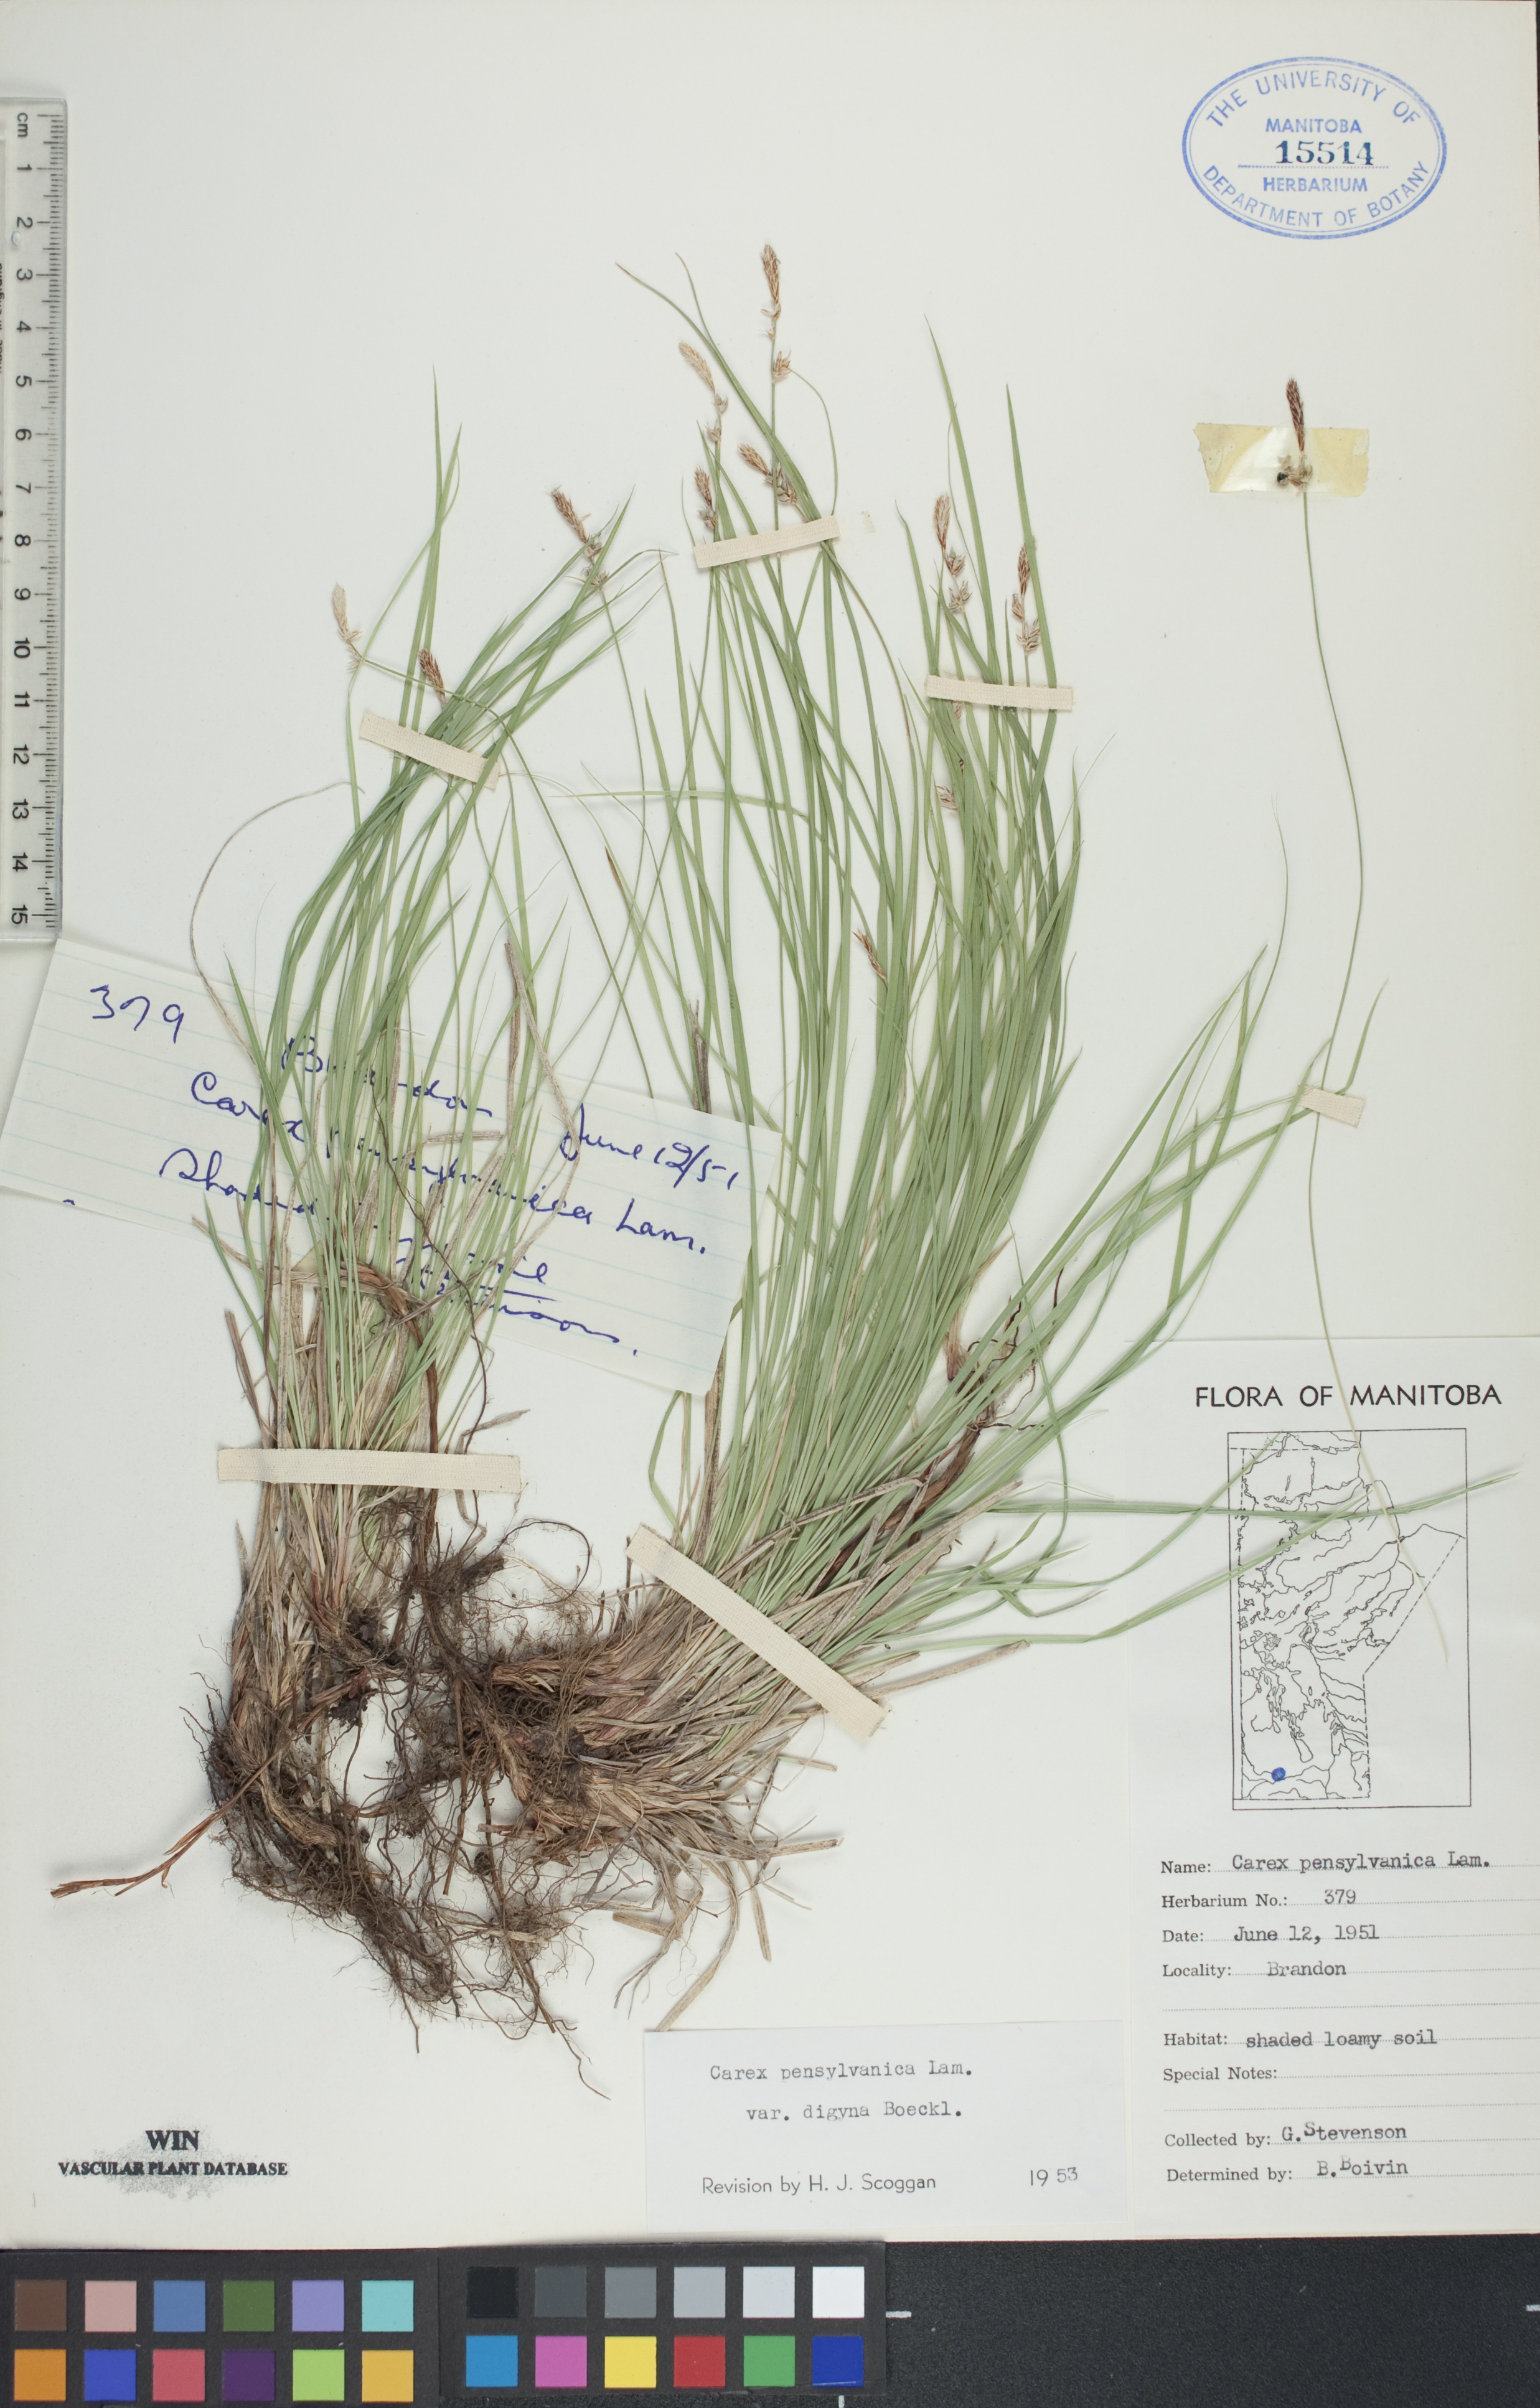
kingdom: Plantae
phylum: Tracheophyta
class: Liliopsida
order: Poales
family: Cyperaceae
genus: Carex
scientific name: Carex pensylvanica
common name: Common oak sedge
